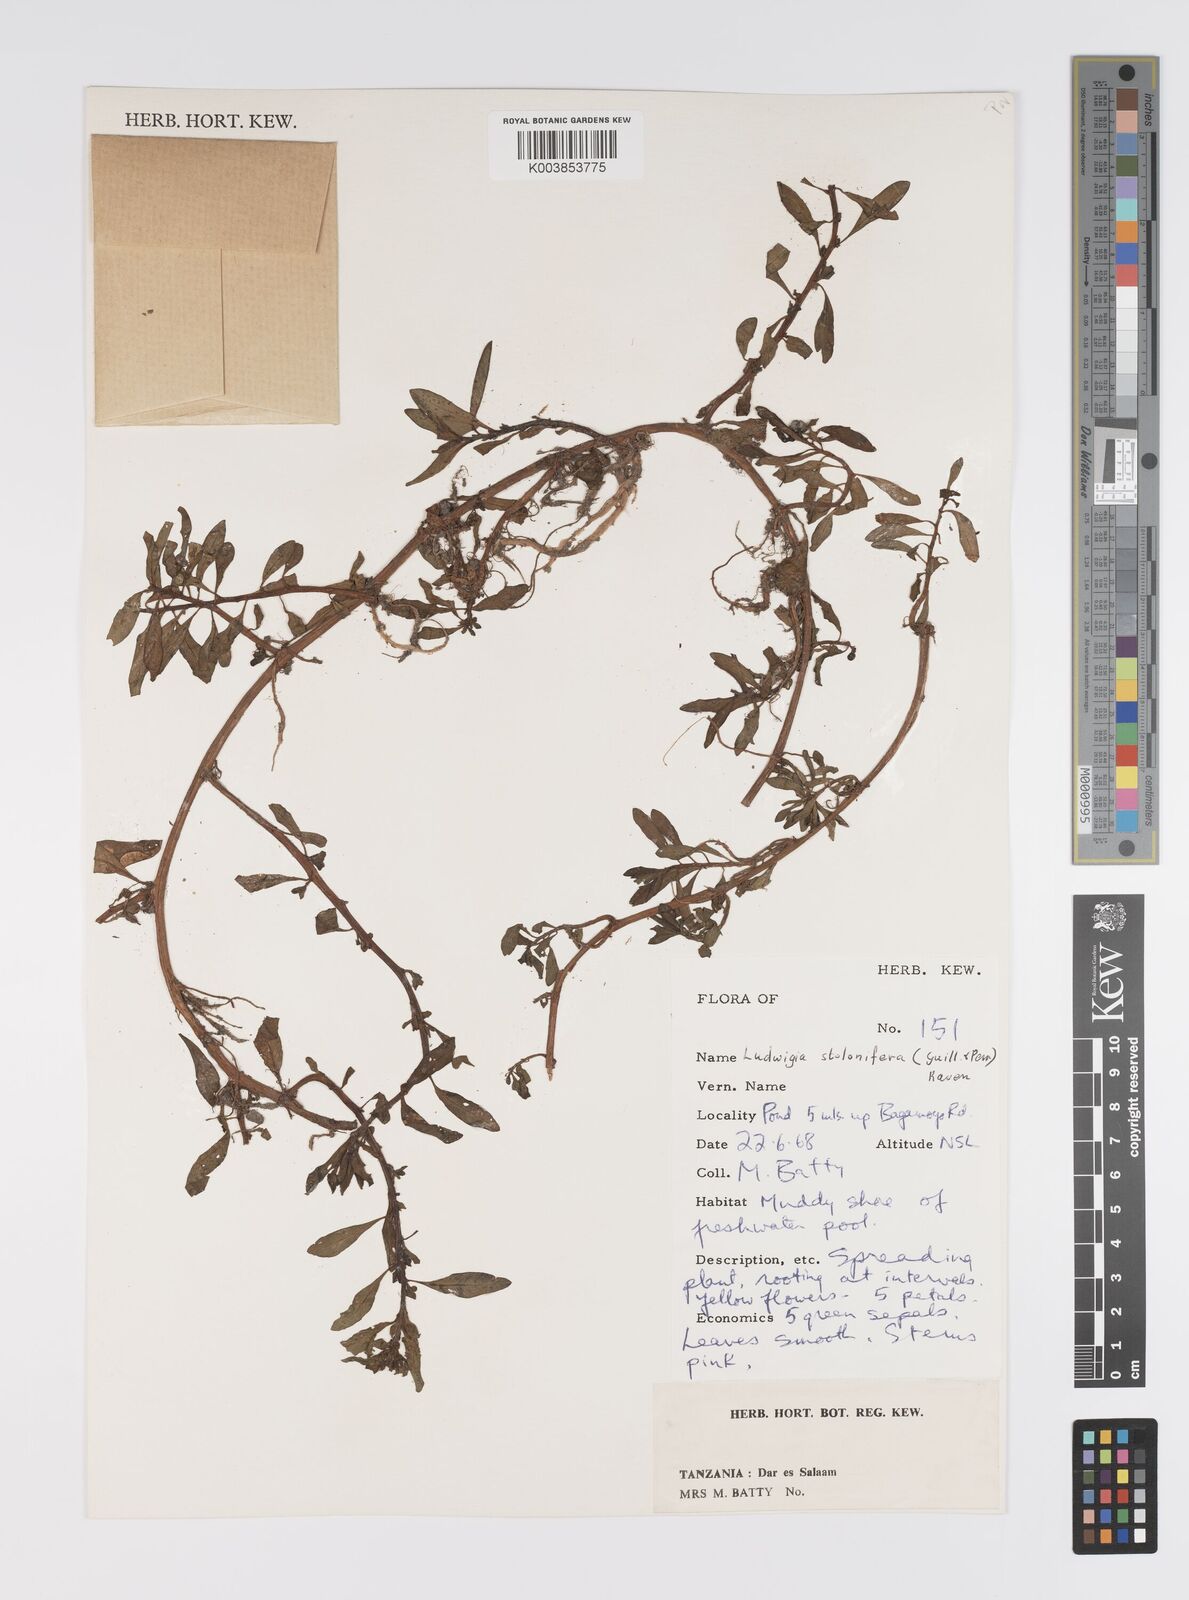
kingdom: Plantae
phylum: Tracheophyta
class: Magnoliopsida
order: Myrtales
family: Onagraceae
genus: Ludwigia
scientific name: Ludwigia repens
